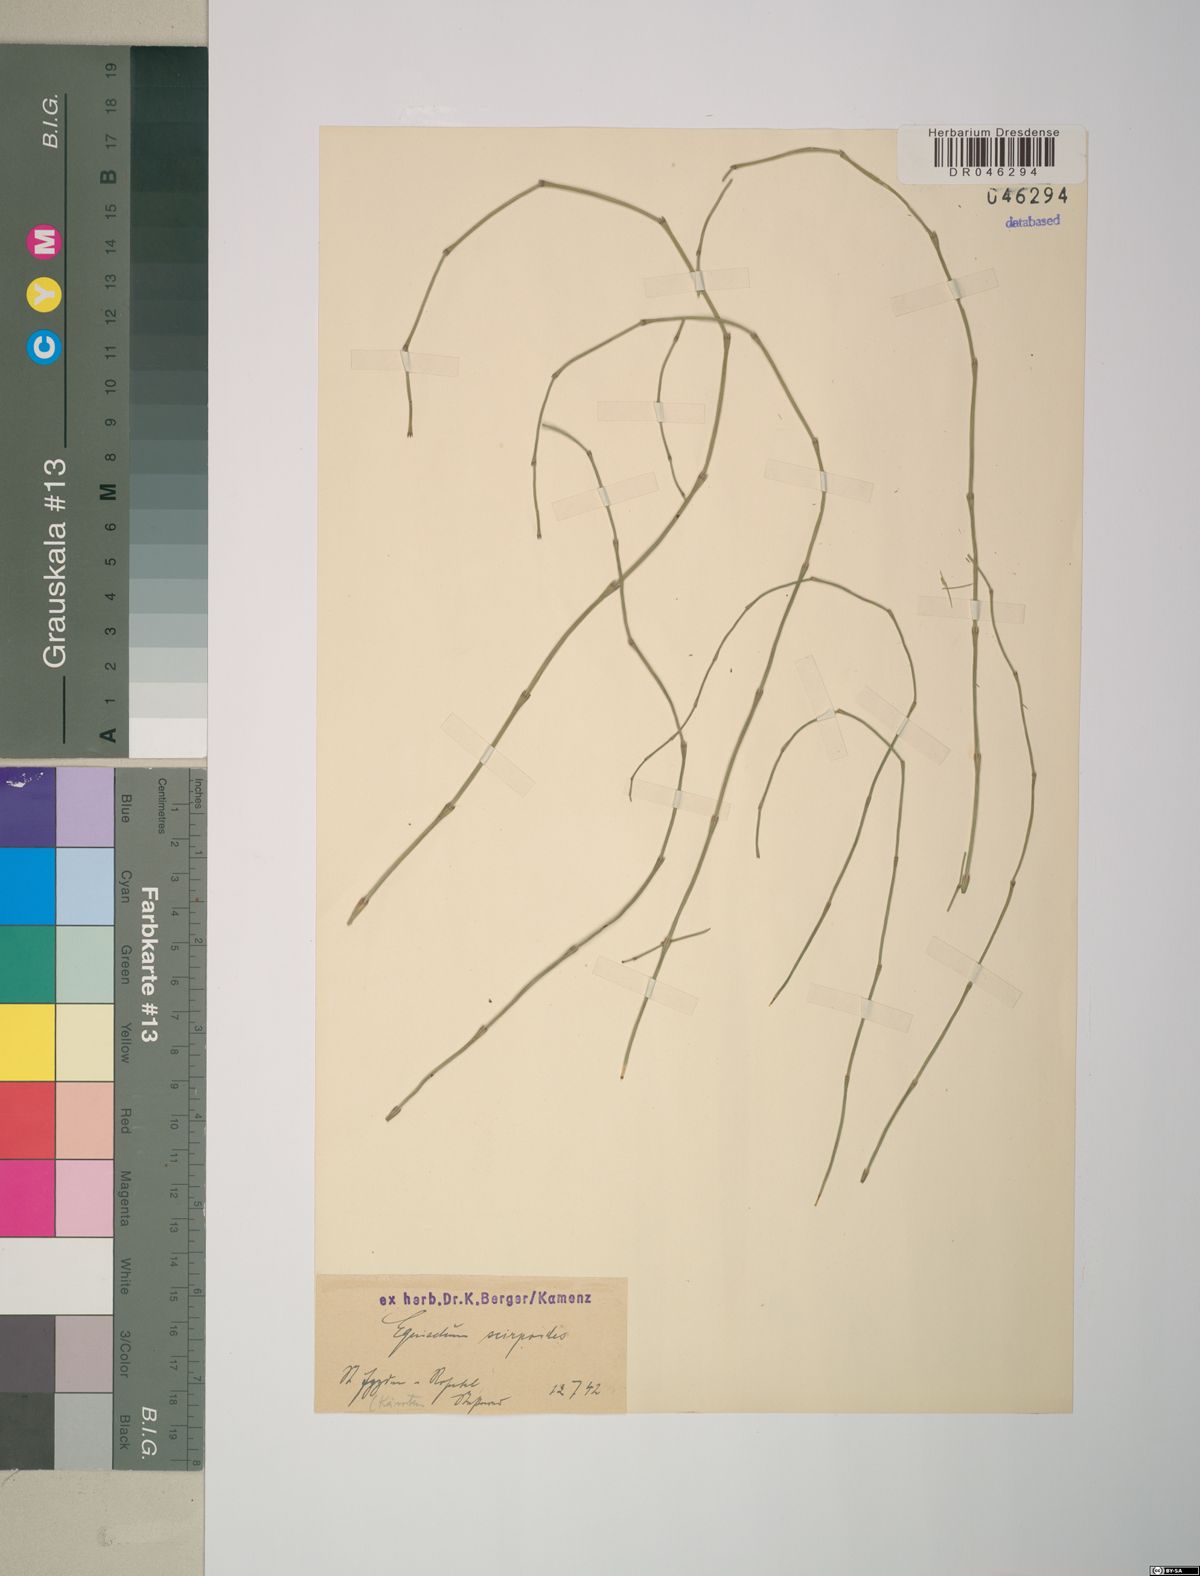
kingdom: Plantae
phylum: Tracheophyta
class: Polypodiopsida
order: Equisetales
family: Equisetaceae
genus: Equisetum
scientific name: Equisetum scirpoides
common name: Delicate horsetail
